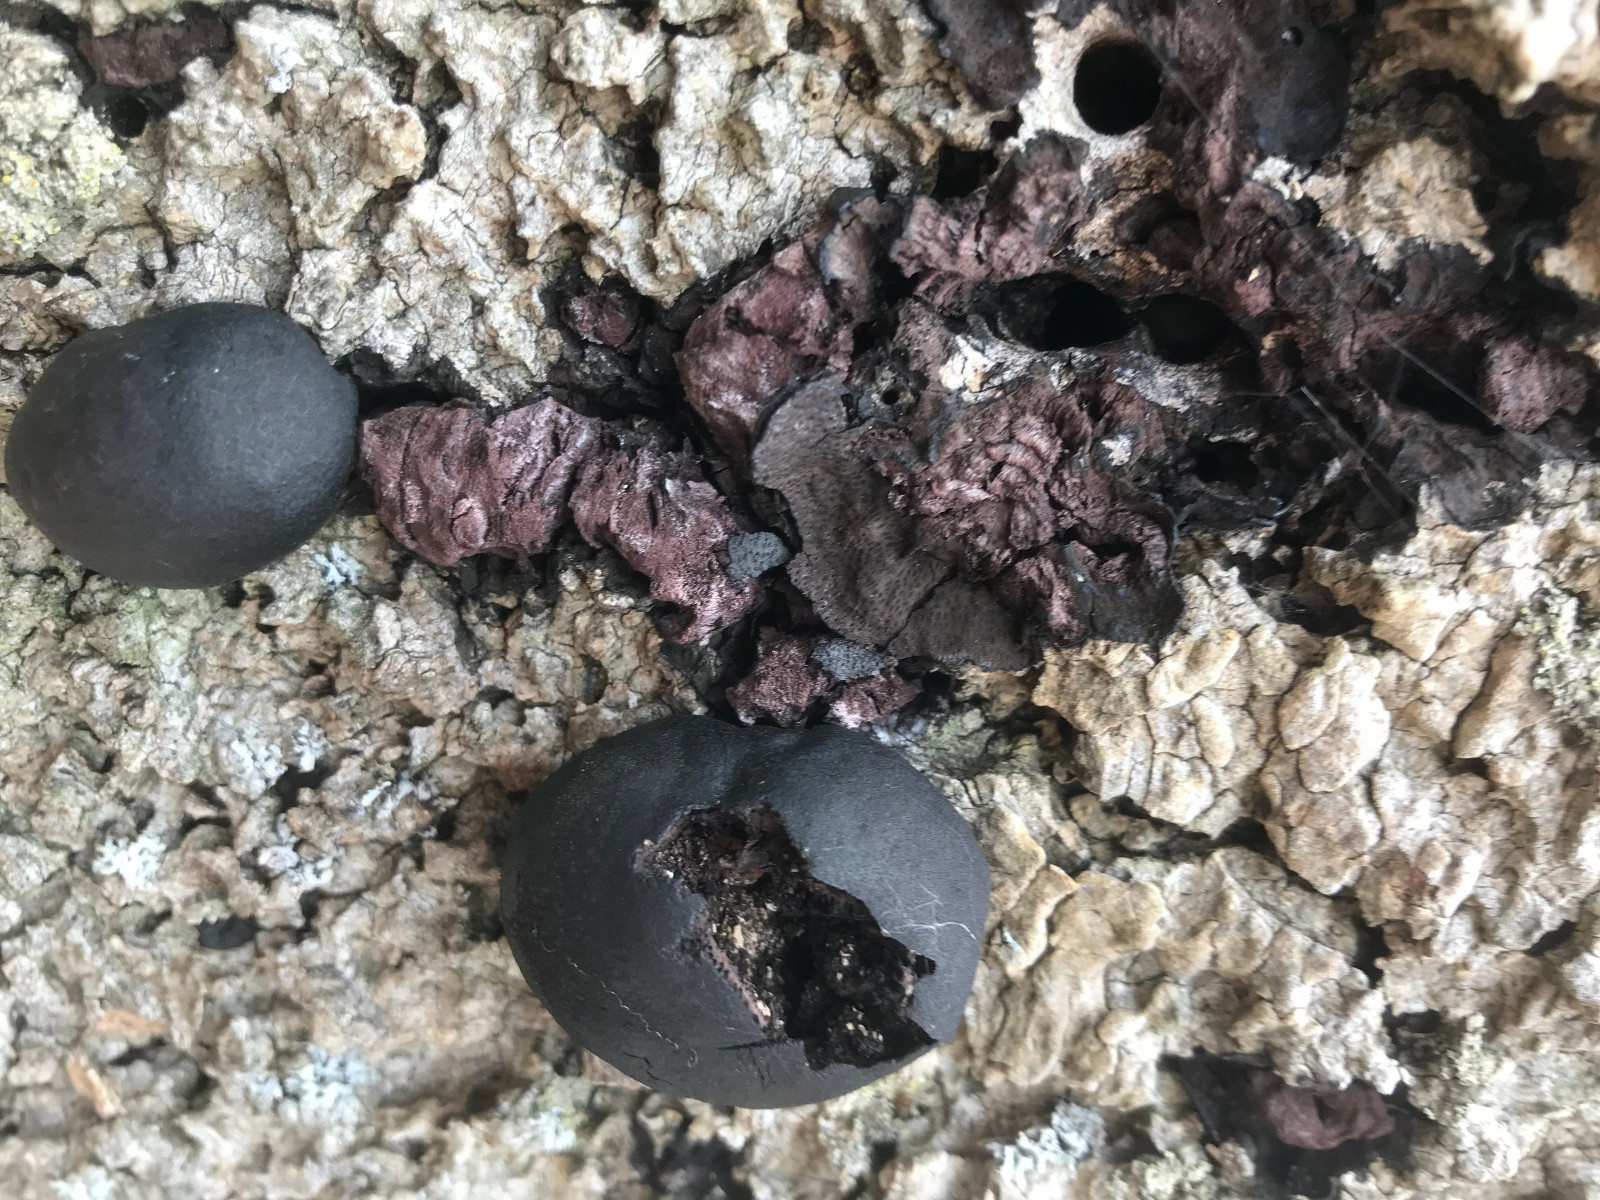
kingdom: Fungi
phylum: Ascomycota
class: Sordariomycetes
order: Xylariales
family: Hypoxylaceae
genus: Daldinia
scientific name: Daldinia concentrica
